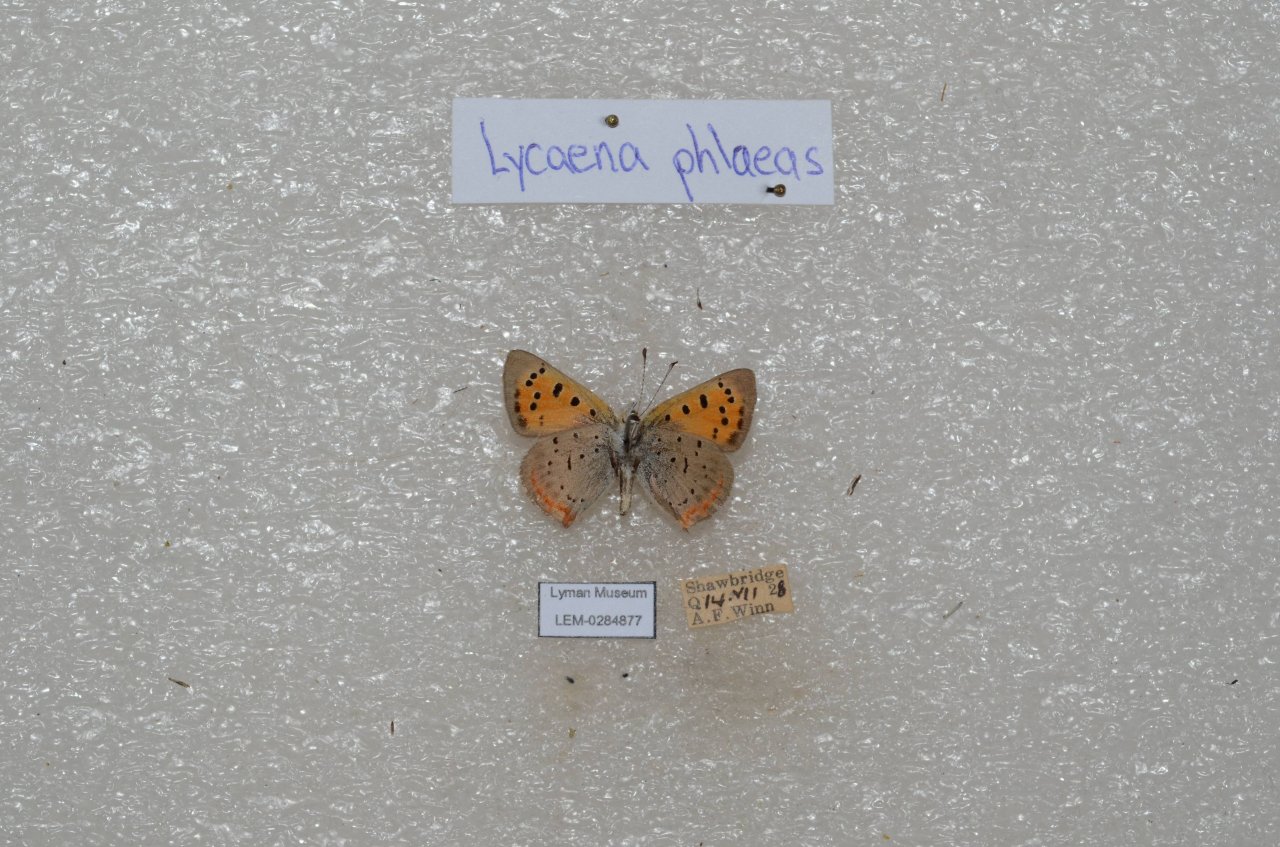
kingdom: Animalia
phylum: Arthropoda
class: Insecta
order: Lepidoptera
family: Lycaenidae
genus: Lycaena
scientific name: Lycaena phlaeas
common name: American Copper
